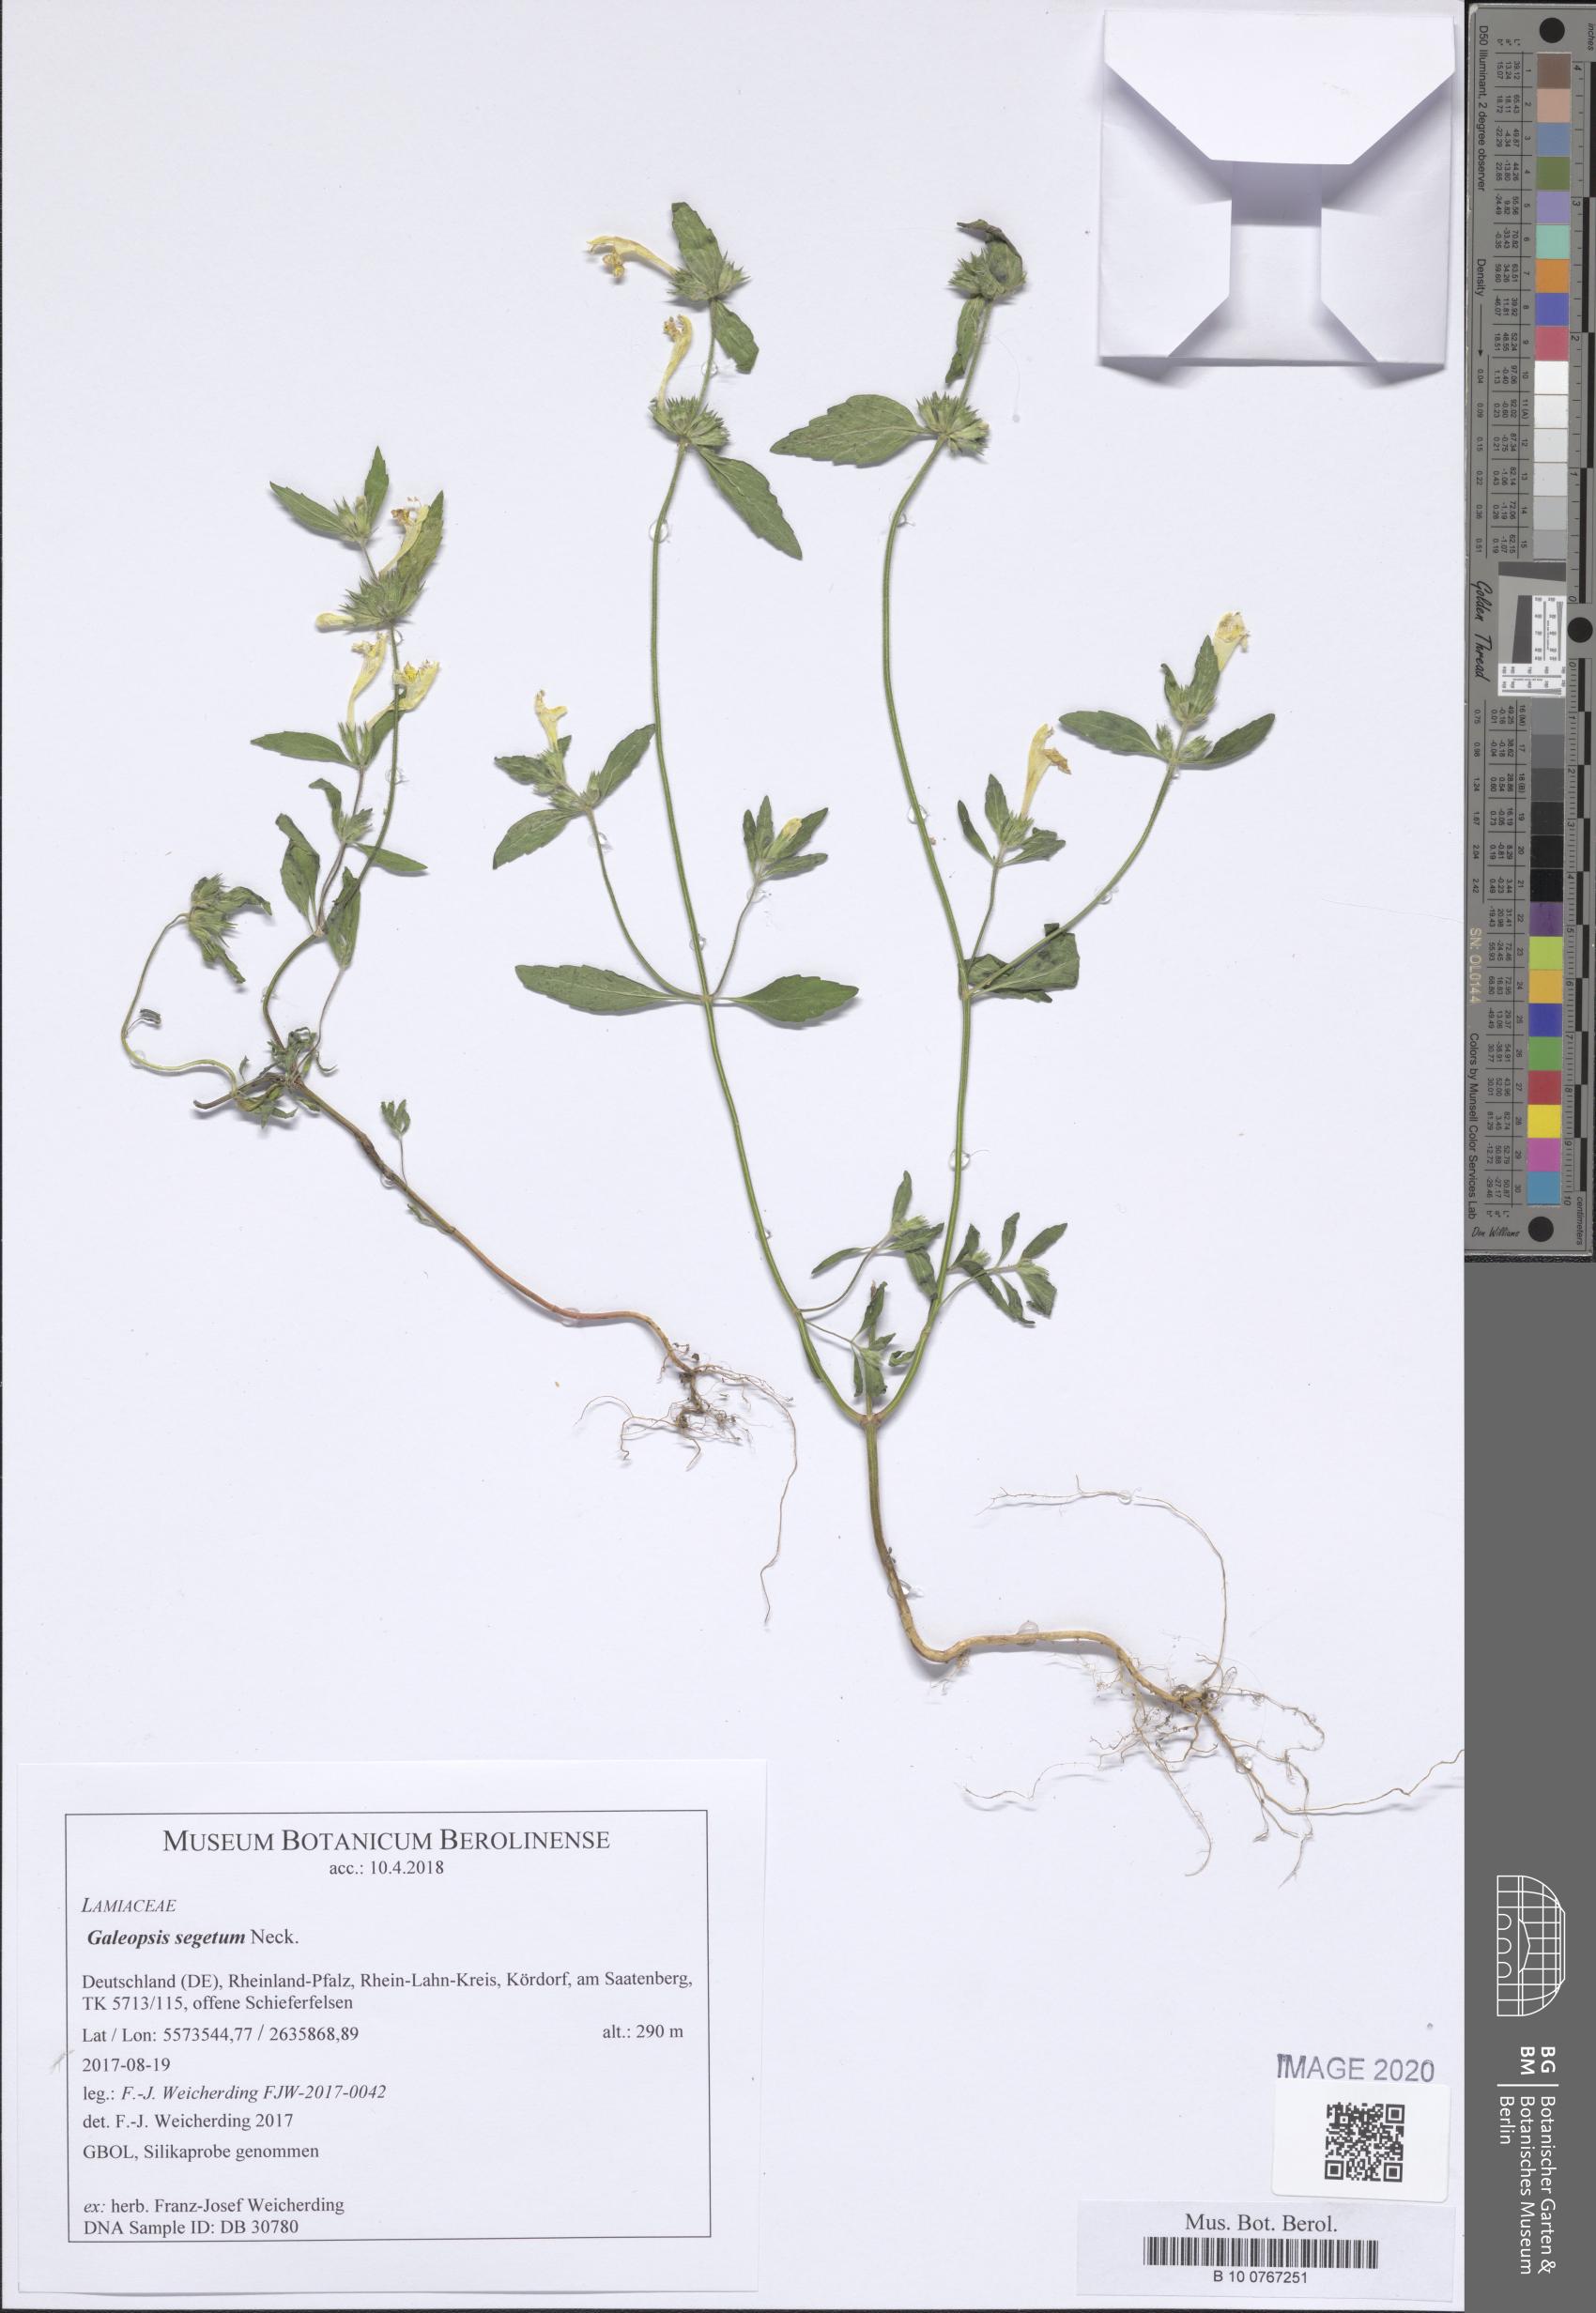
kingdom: Plantae
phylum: Tracheophyta
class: Magnoliopsida
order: Lamiales
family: Lamiaceae
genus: Galeopsis
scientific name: Galeopsis segetum
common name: Downy hemp-nettle
